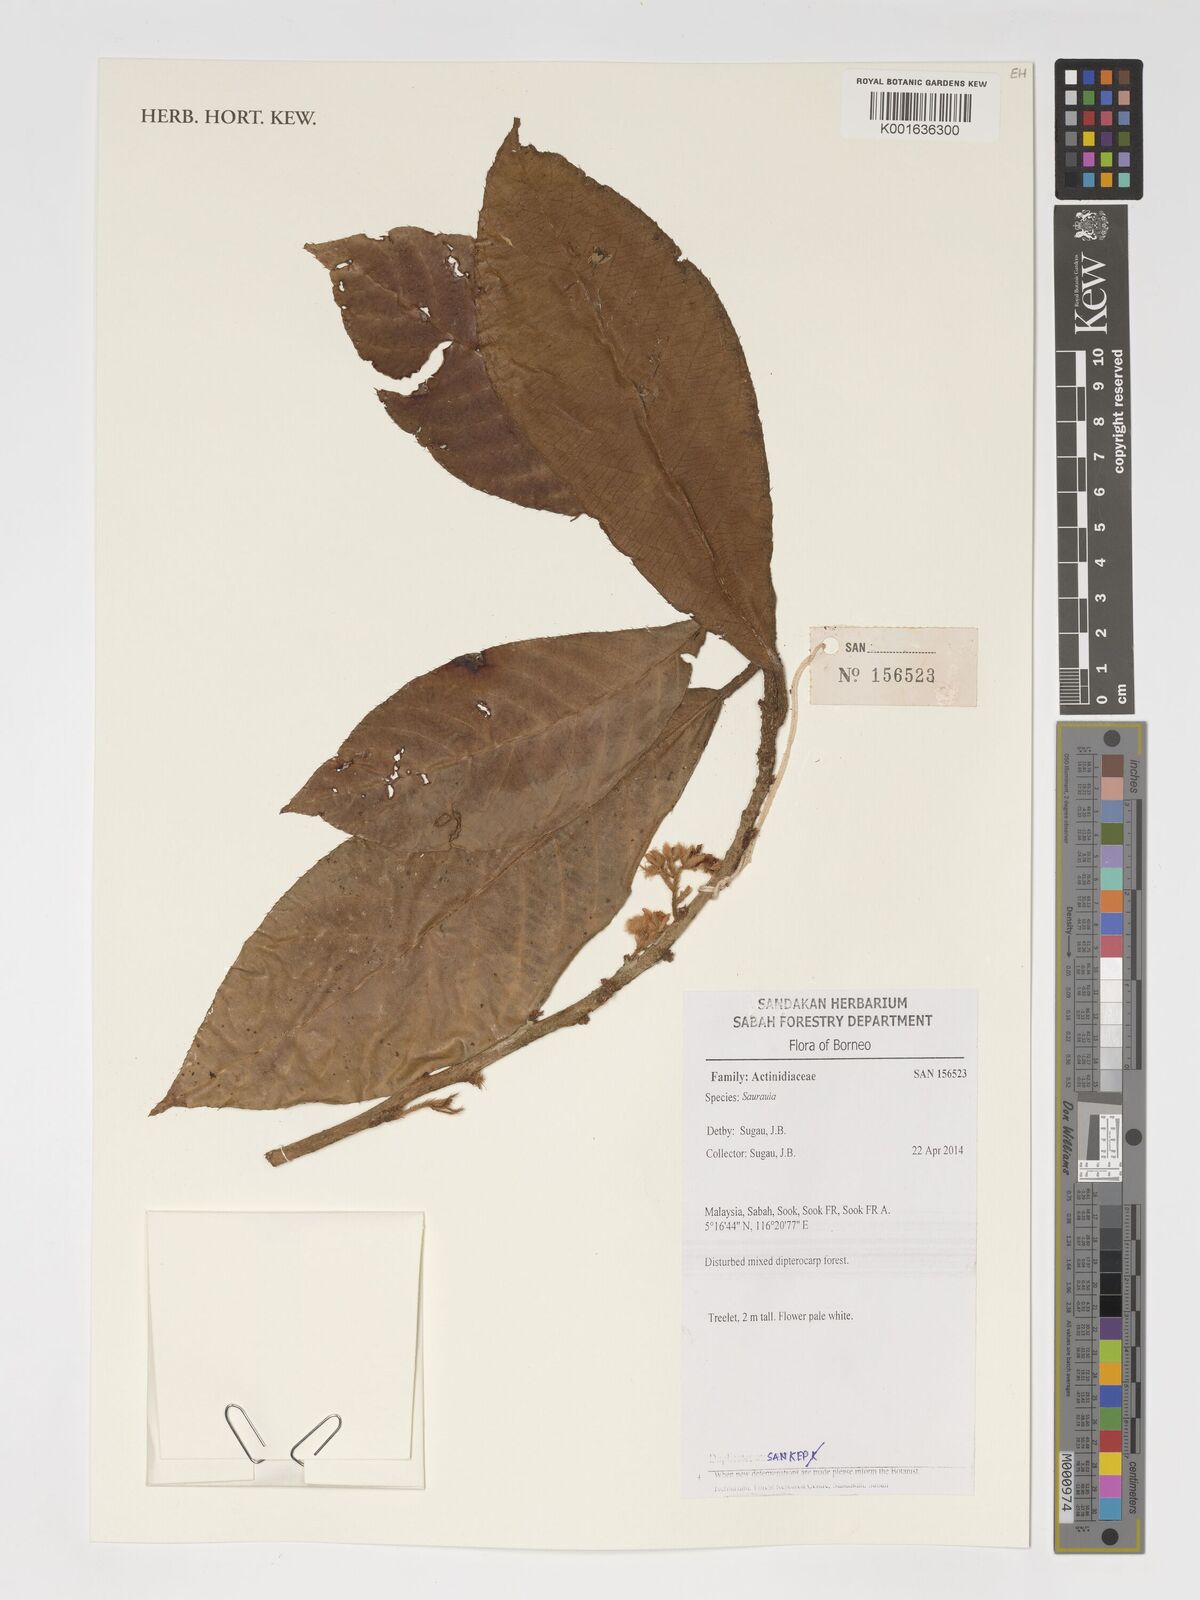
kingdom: Plantae
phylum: Tracheophyta
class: Magnoliopsida
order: Ericales
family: Actinidiaceae
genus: Saurauia
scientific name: Saurauia
